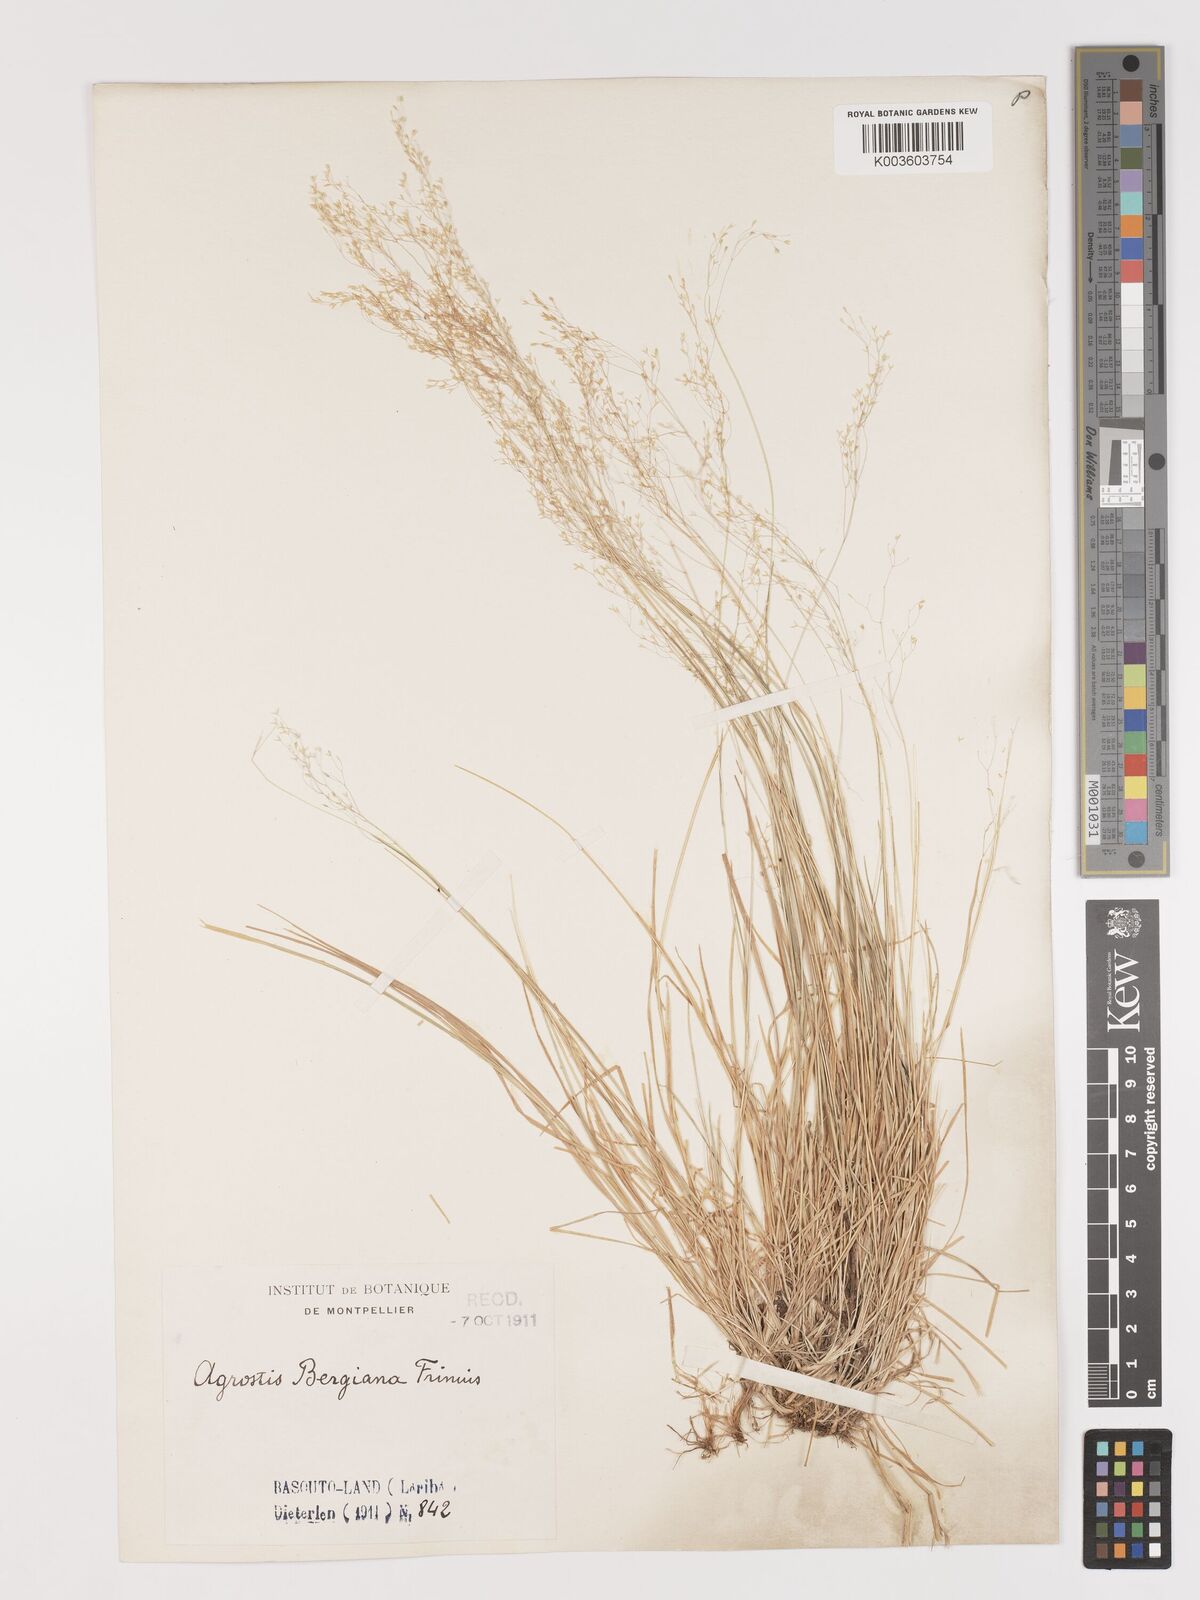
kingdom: Plantae
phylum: Tracheophyta
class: Liliopsida
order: Poales
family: Poaceae
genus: Agrostis
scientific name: Agrostis bergiana
